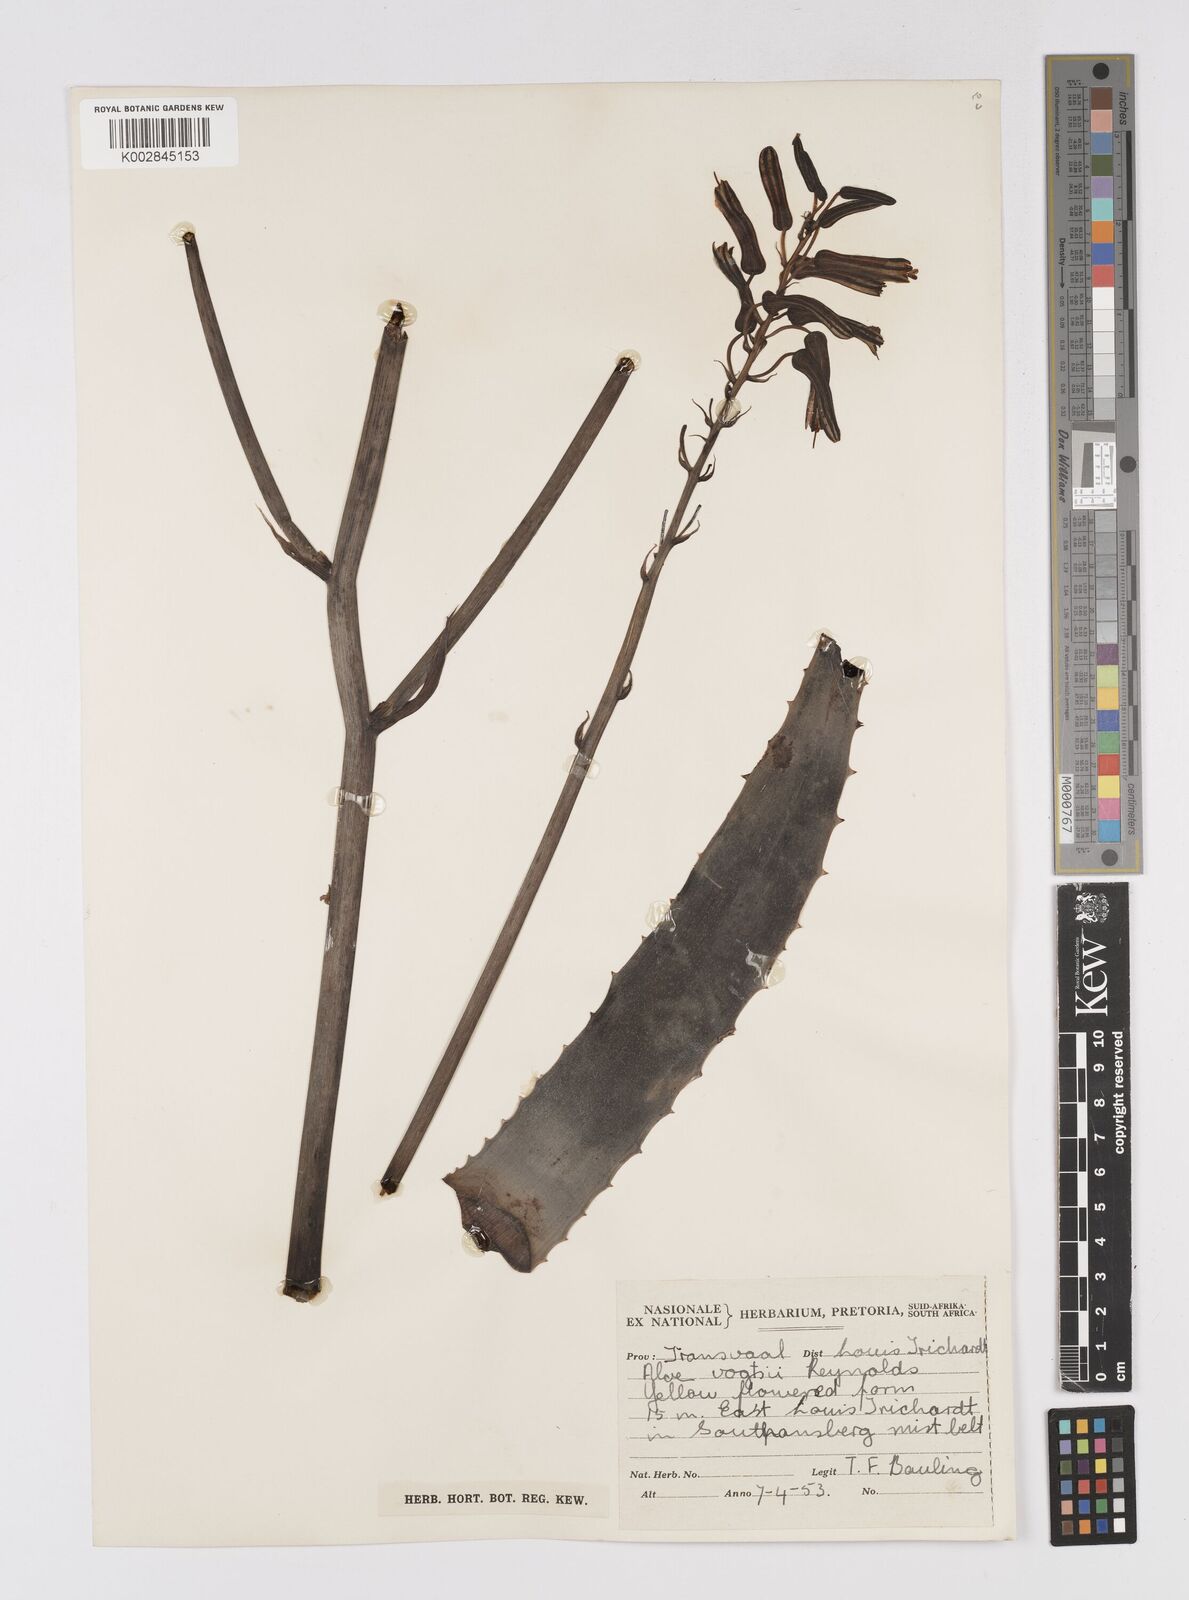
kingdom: Plantae
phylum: Tracheophyta
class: Liliopsida
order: Asparagales
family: Asphodelaceae
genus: Aloe
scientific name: Aloe vogtsii
